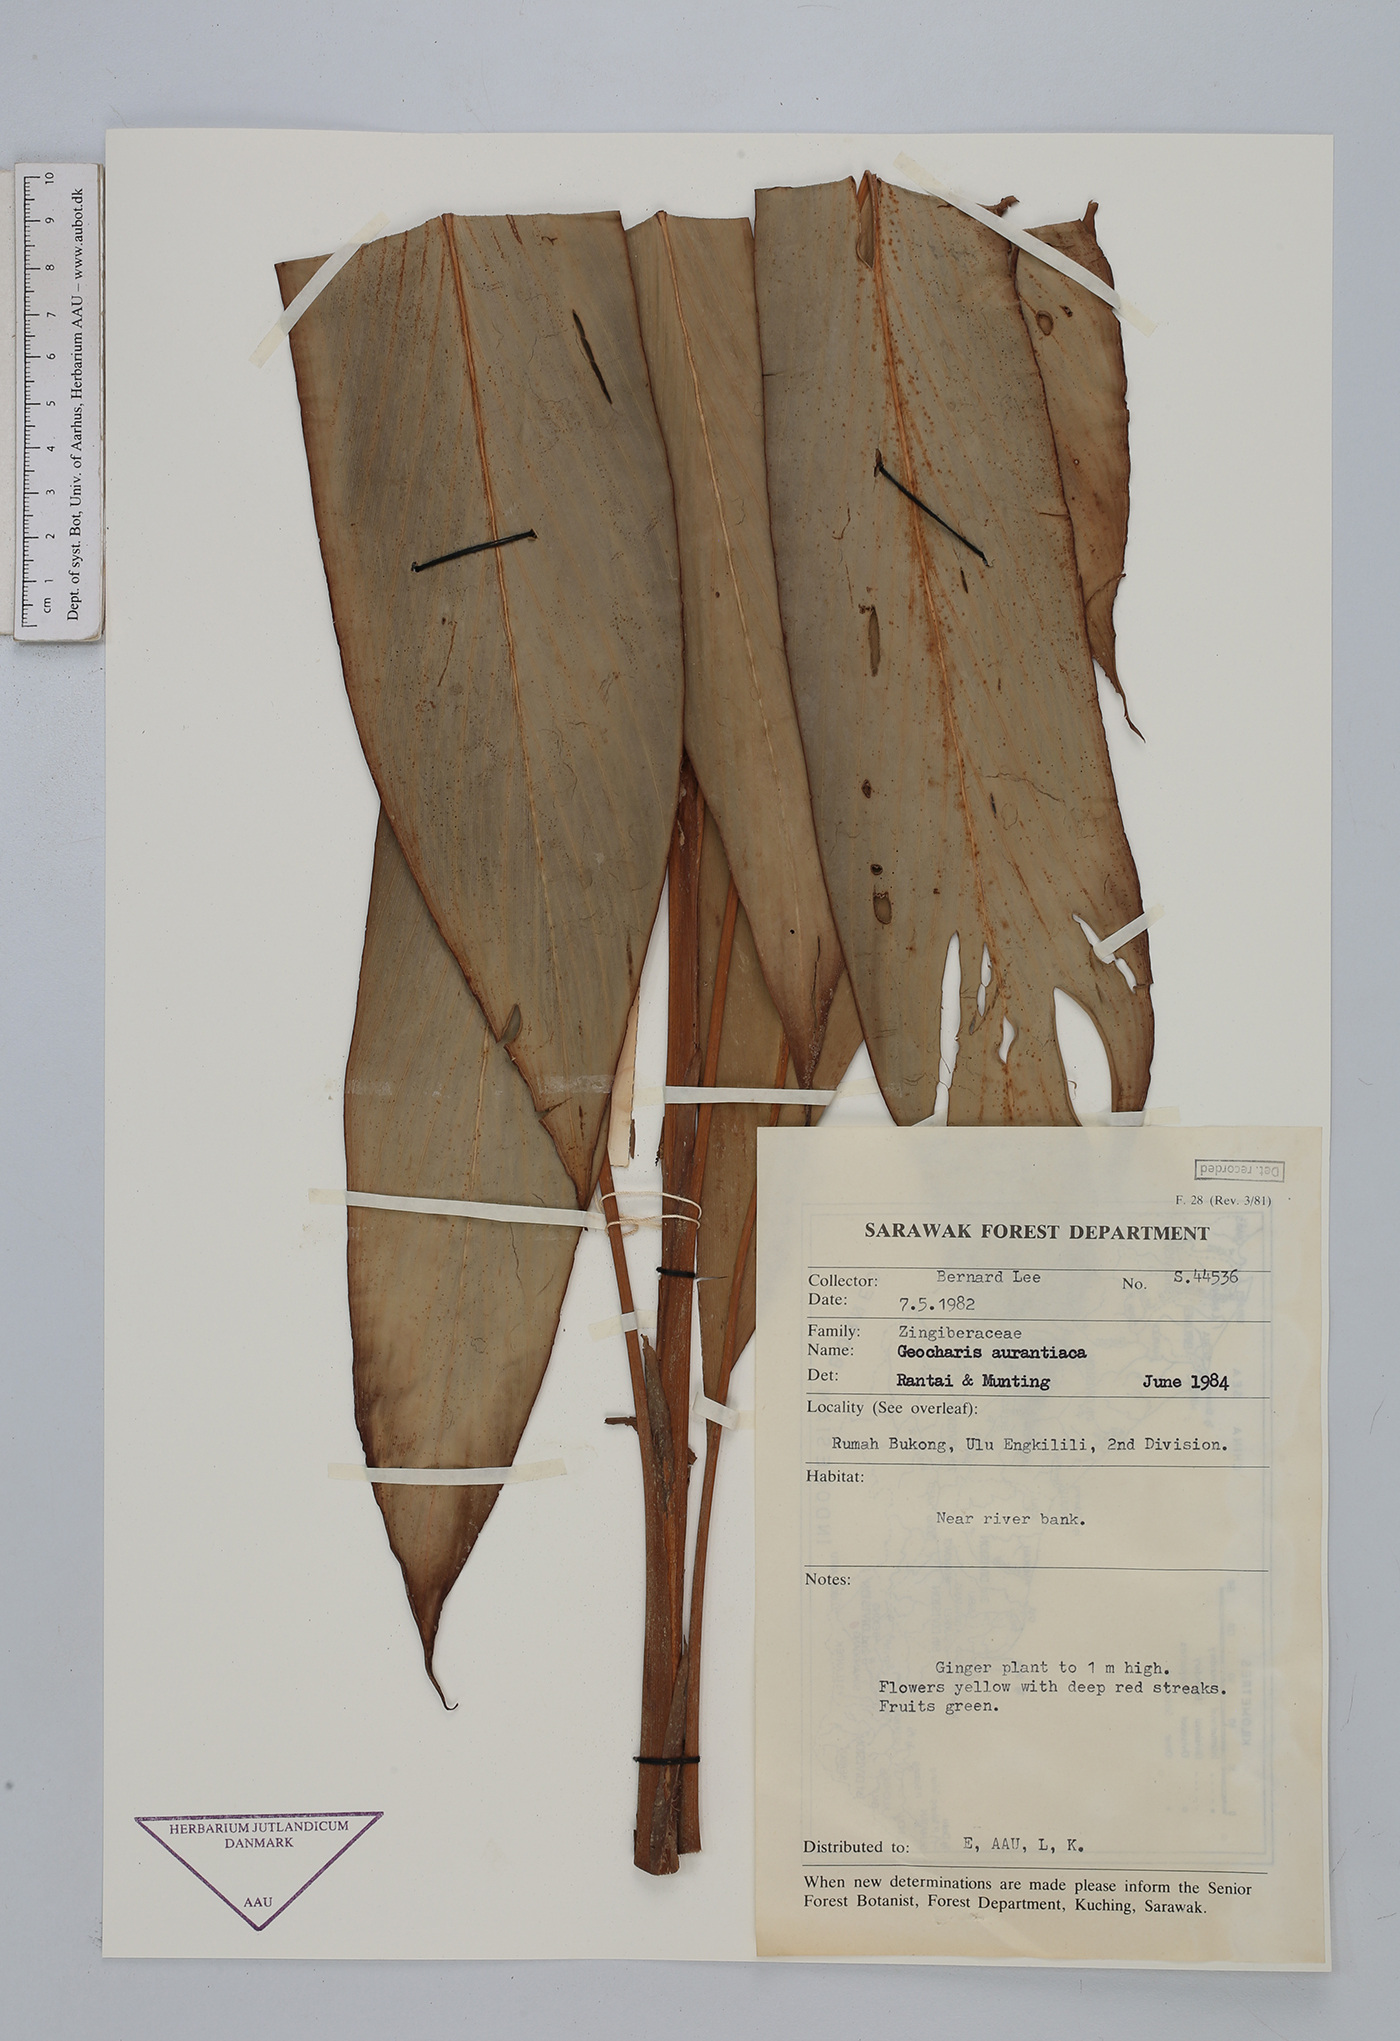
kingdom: Plantae
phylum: Tracheophyta
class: Liliopsida
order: Zingiberales
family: Zingiberaceae
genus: Geocharis
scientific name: Geocharis aurantiaca
